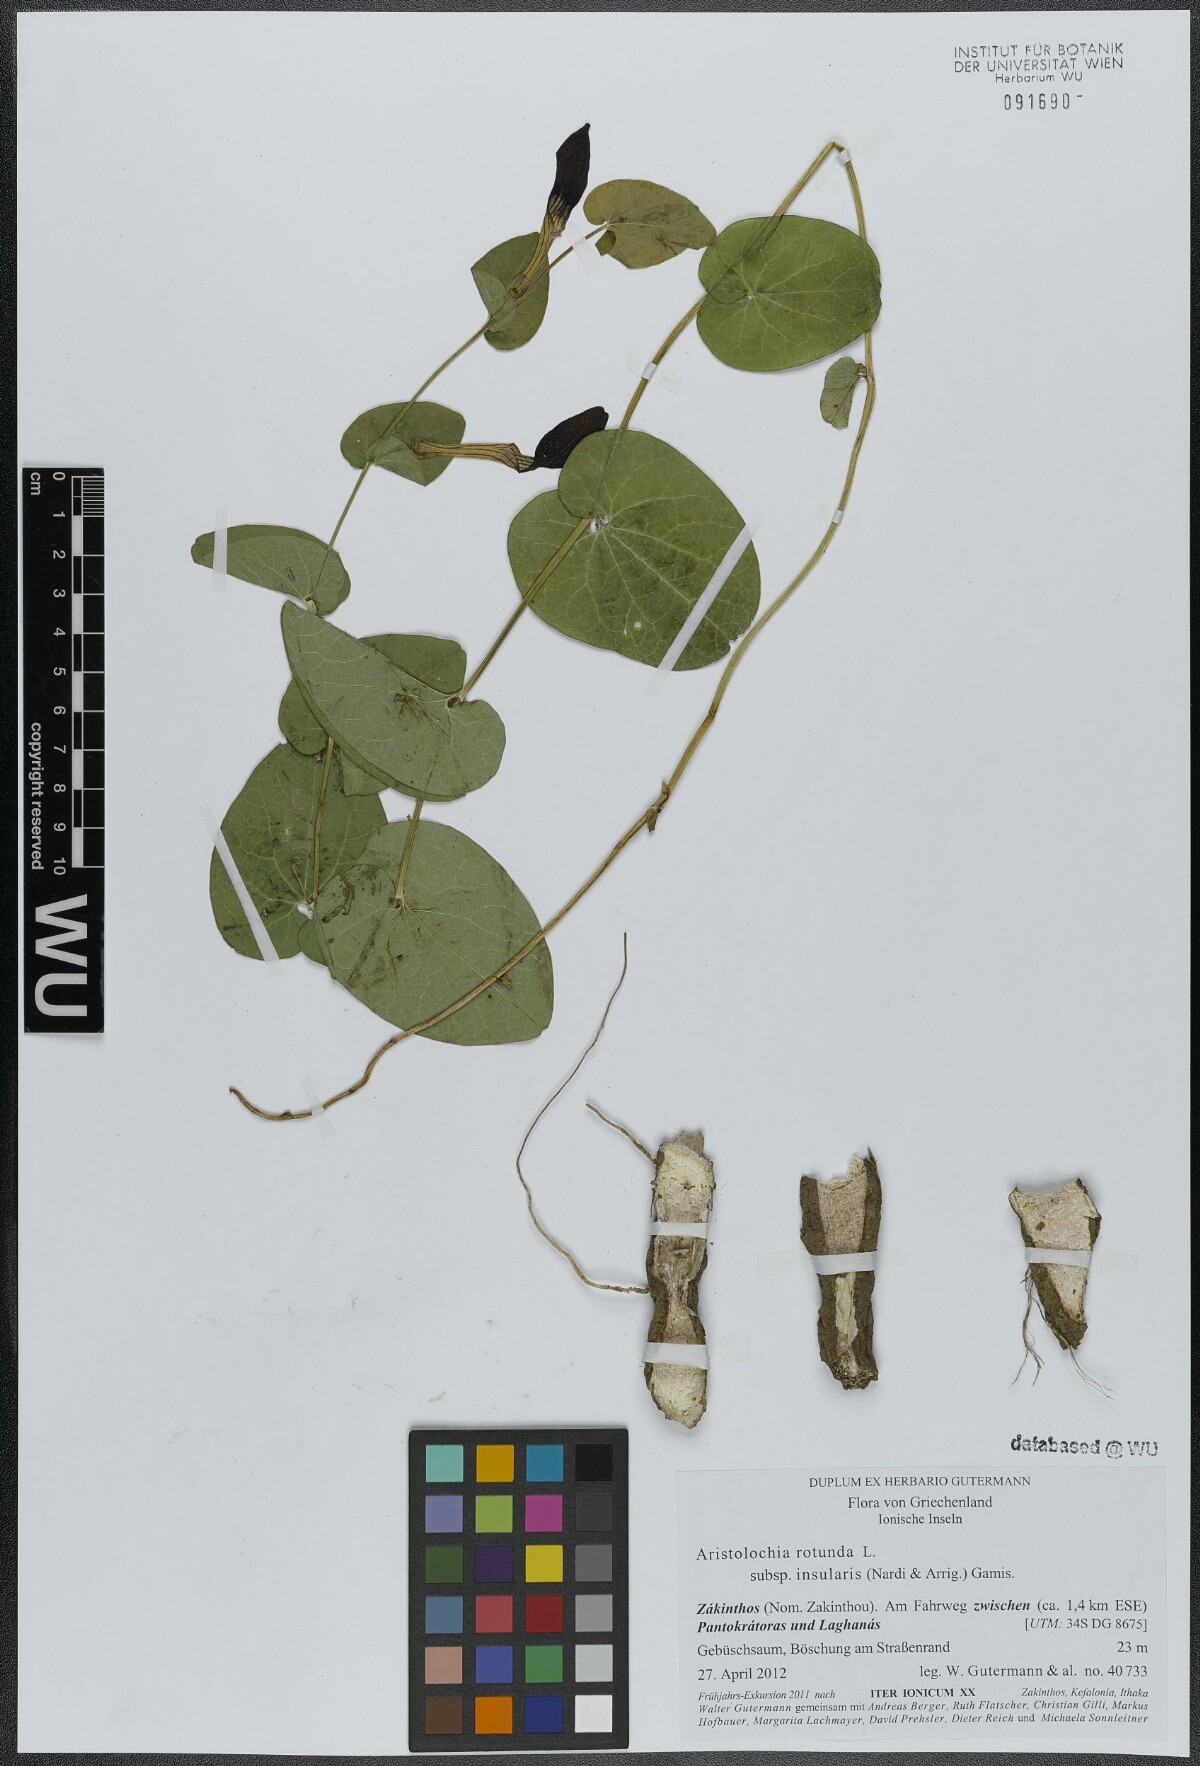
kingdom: Plantae
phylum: Tracheophyta
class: Magnoliopsida
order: Piperales
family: Aristolochiaceae
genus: Aristolochia
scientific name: Aristolochia rotunda
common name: Smearwort
